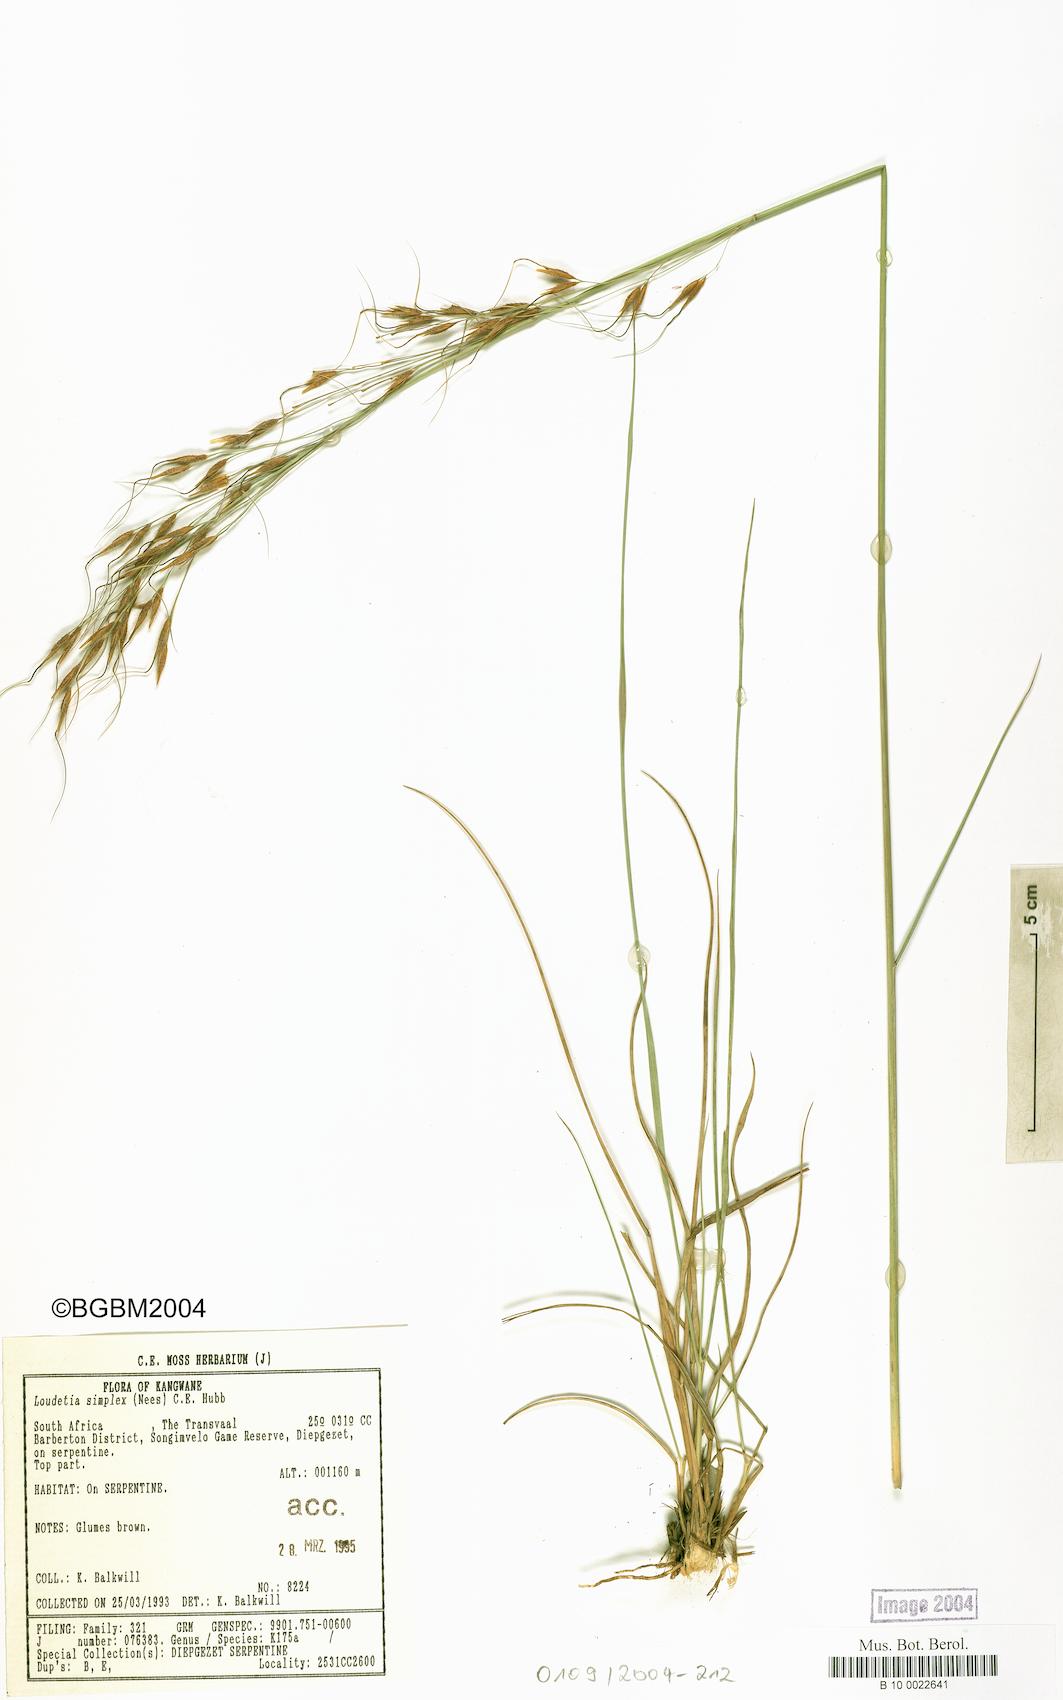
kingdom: Plantae
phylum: Tracheophyta
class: Liliopsida
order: Poales
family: Poaceae
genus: Loudetia
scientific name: Loudetia simplex
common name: Common russet grass
